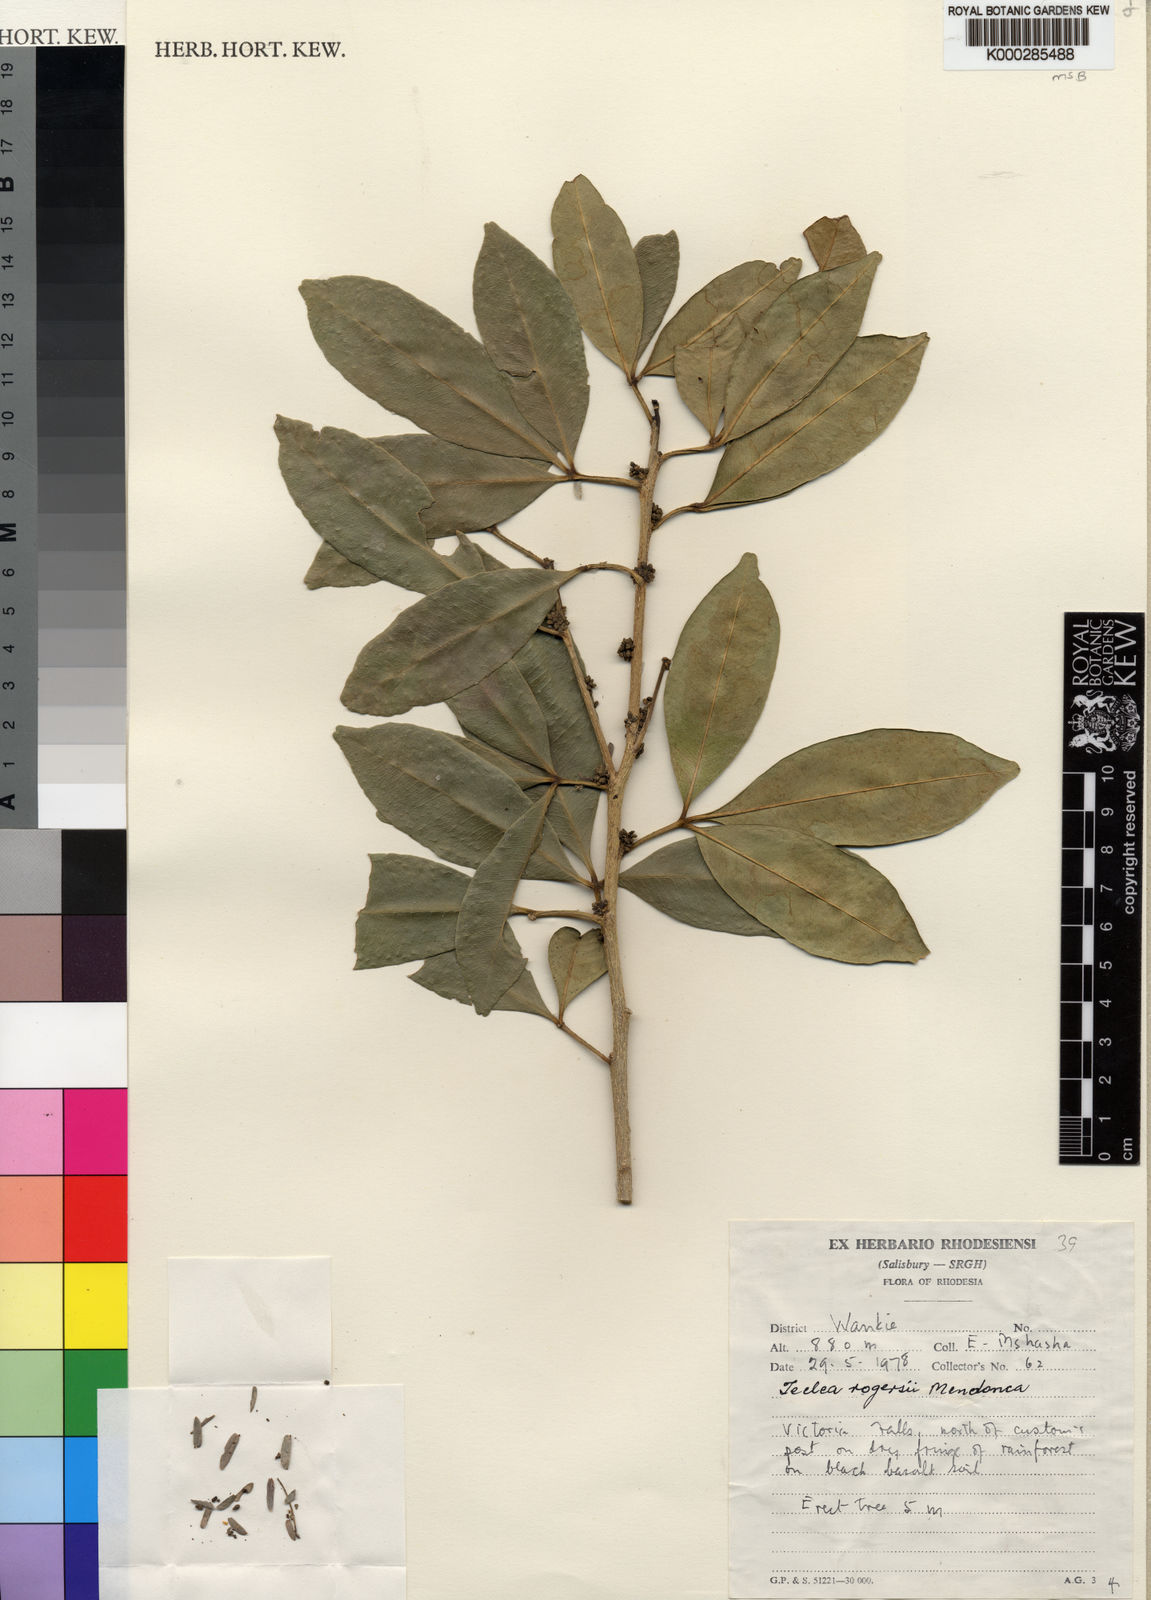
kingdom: Plantae
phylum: Tracheophyta
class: Magnoliopsida
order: Sapindales
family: Rutaceae
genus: Vepris
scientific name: Vepris
